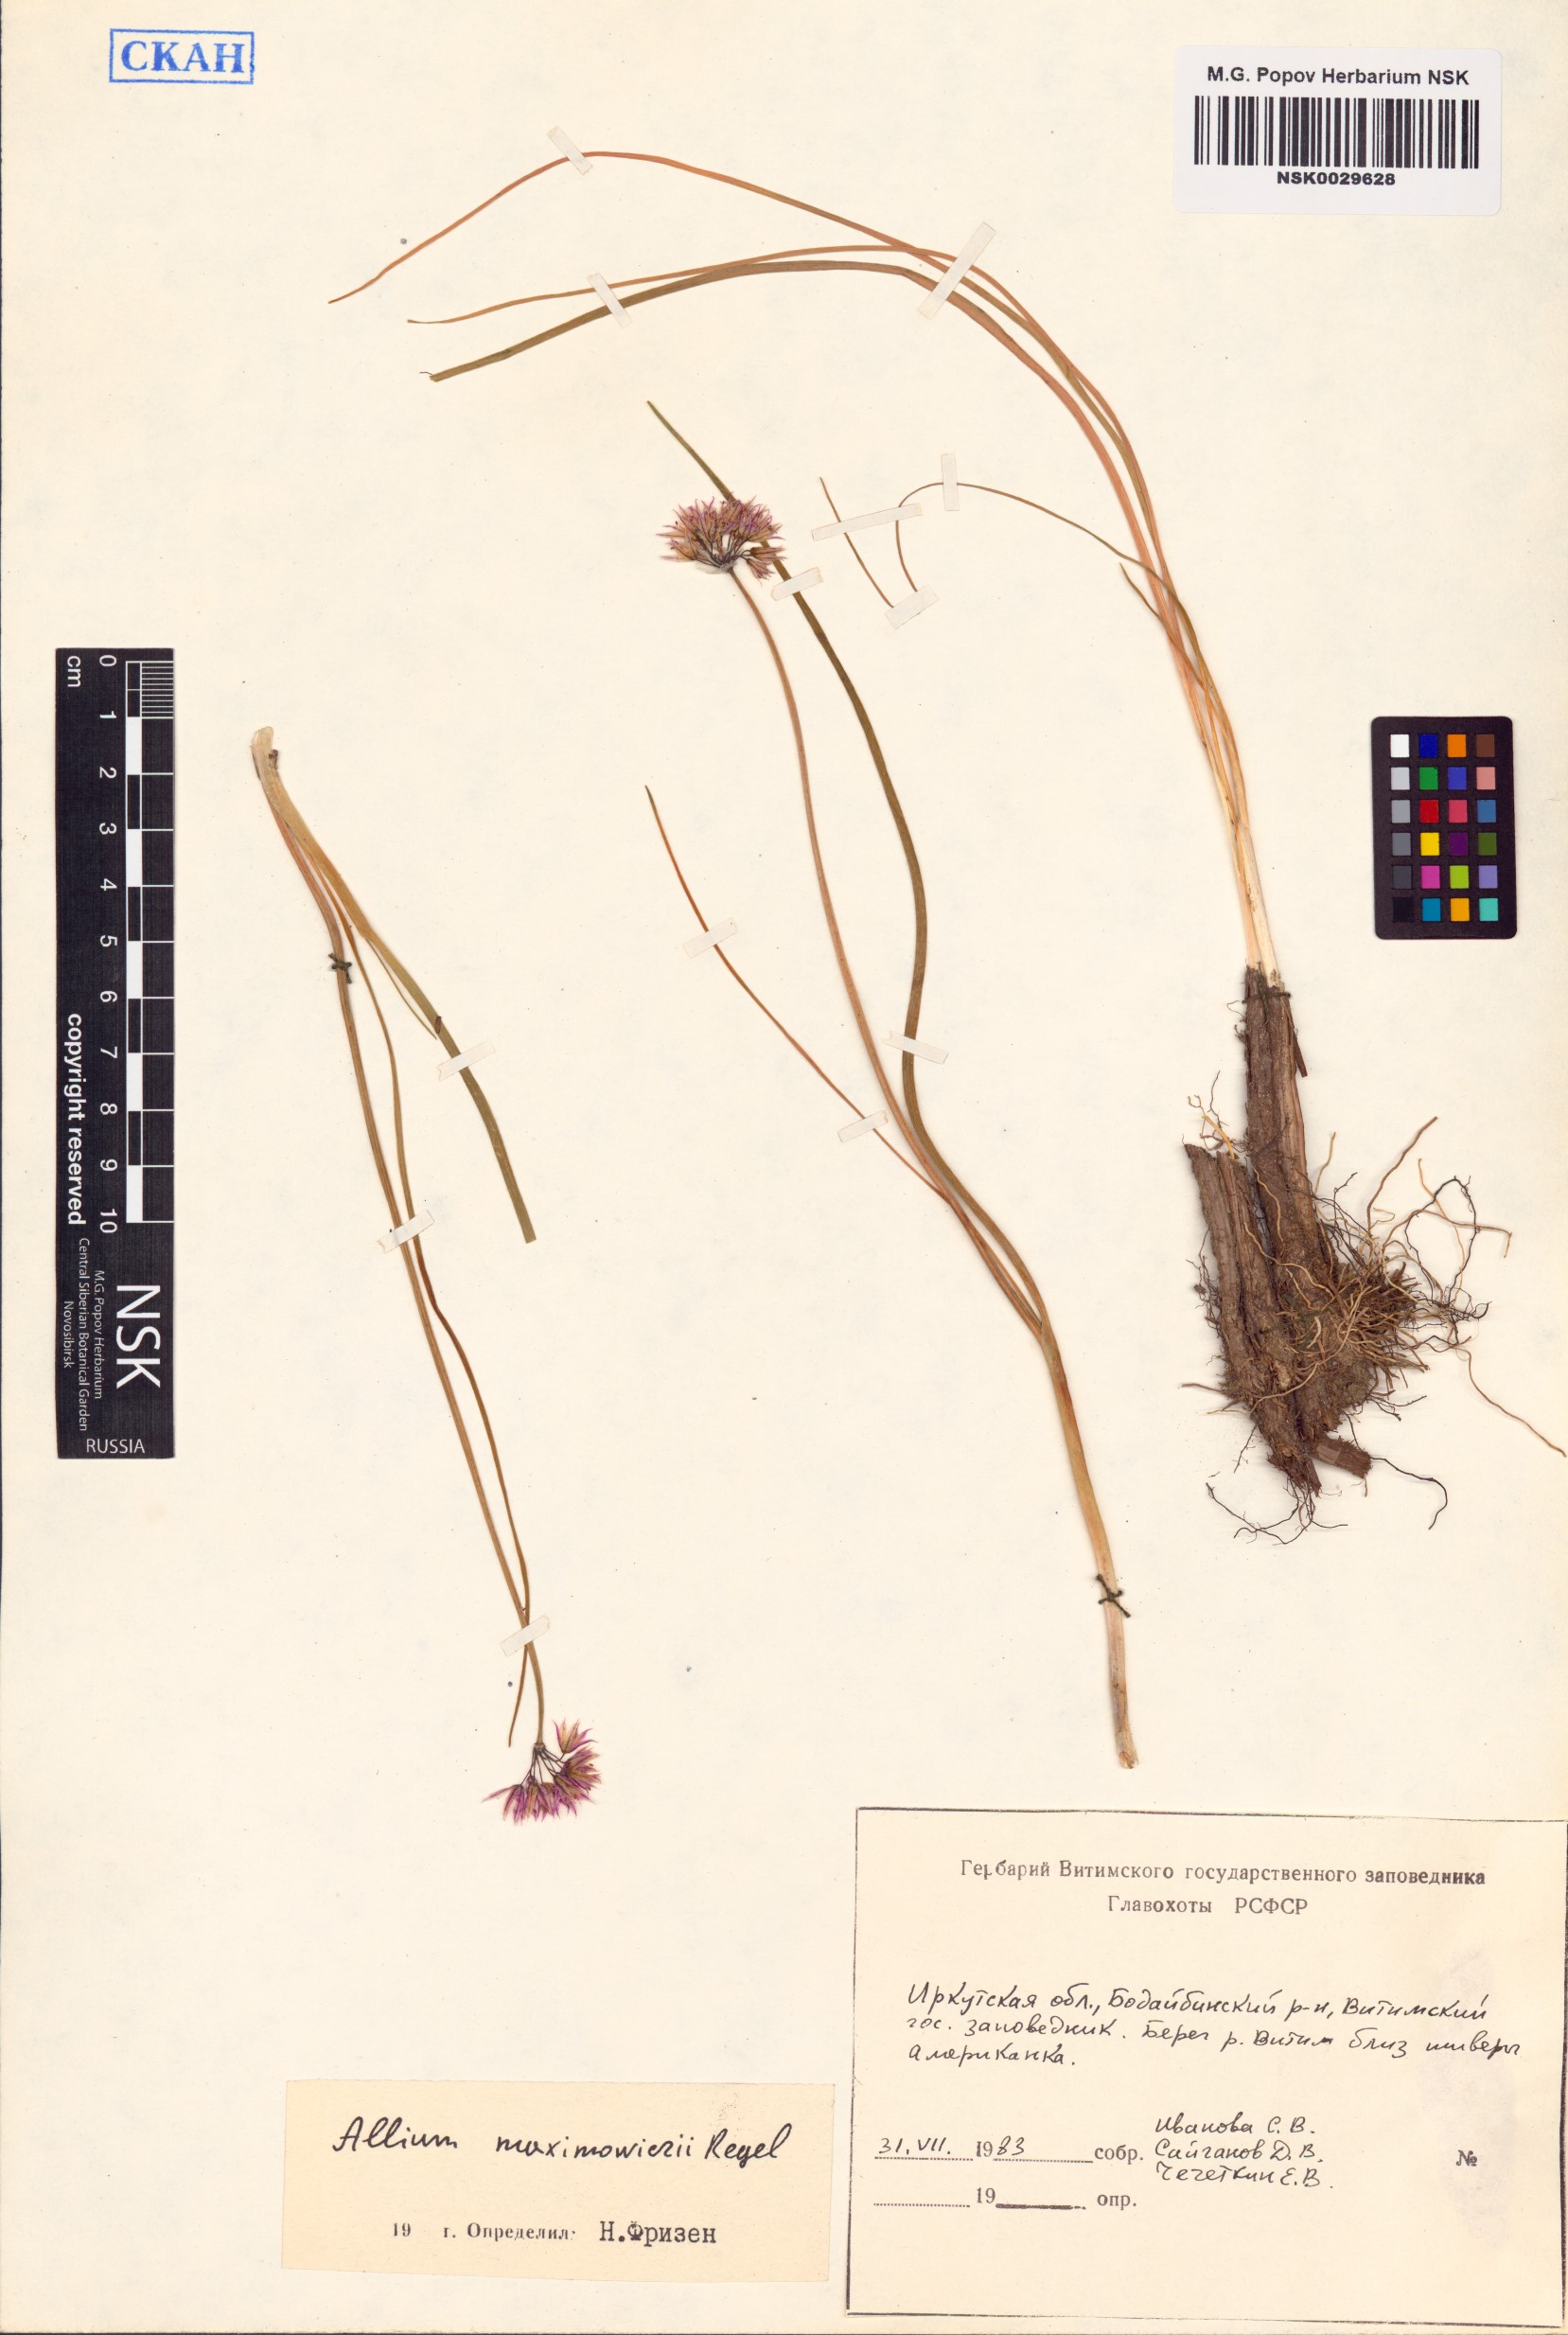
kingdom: Plantae
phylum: Tracheophyta
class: Liliopsida
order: Asparagales
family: Amaryllidaceae
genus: Allium
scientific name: Allium maximowiczii
